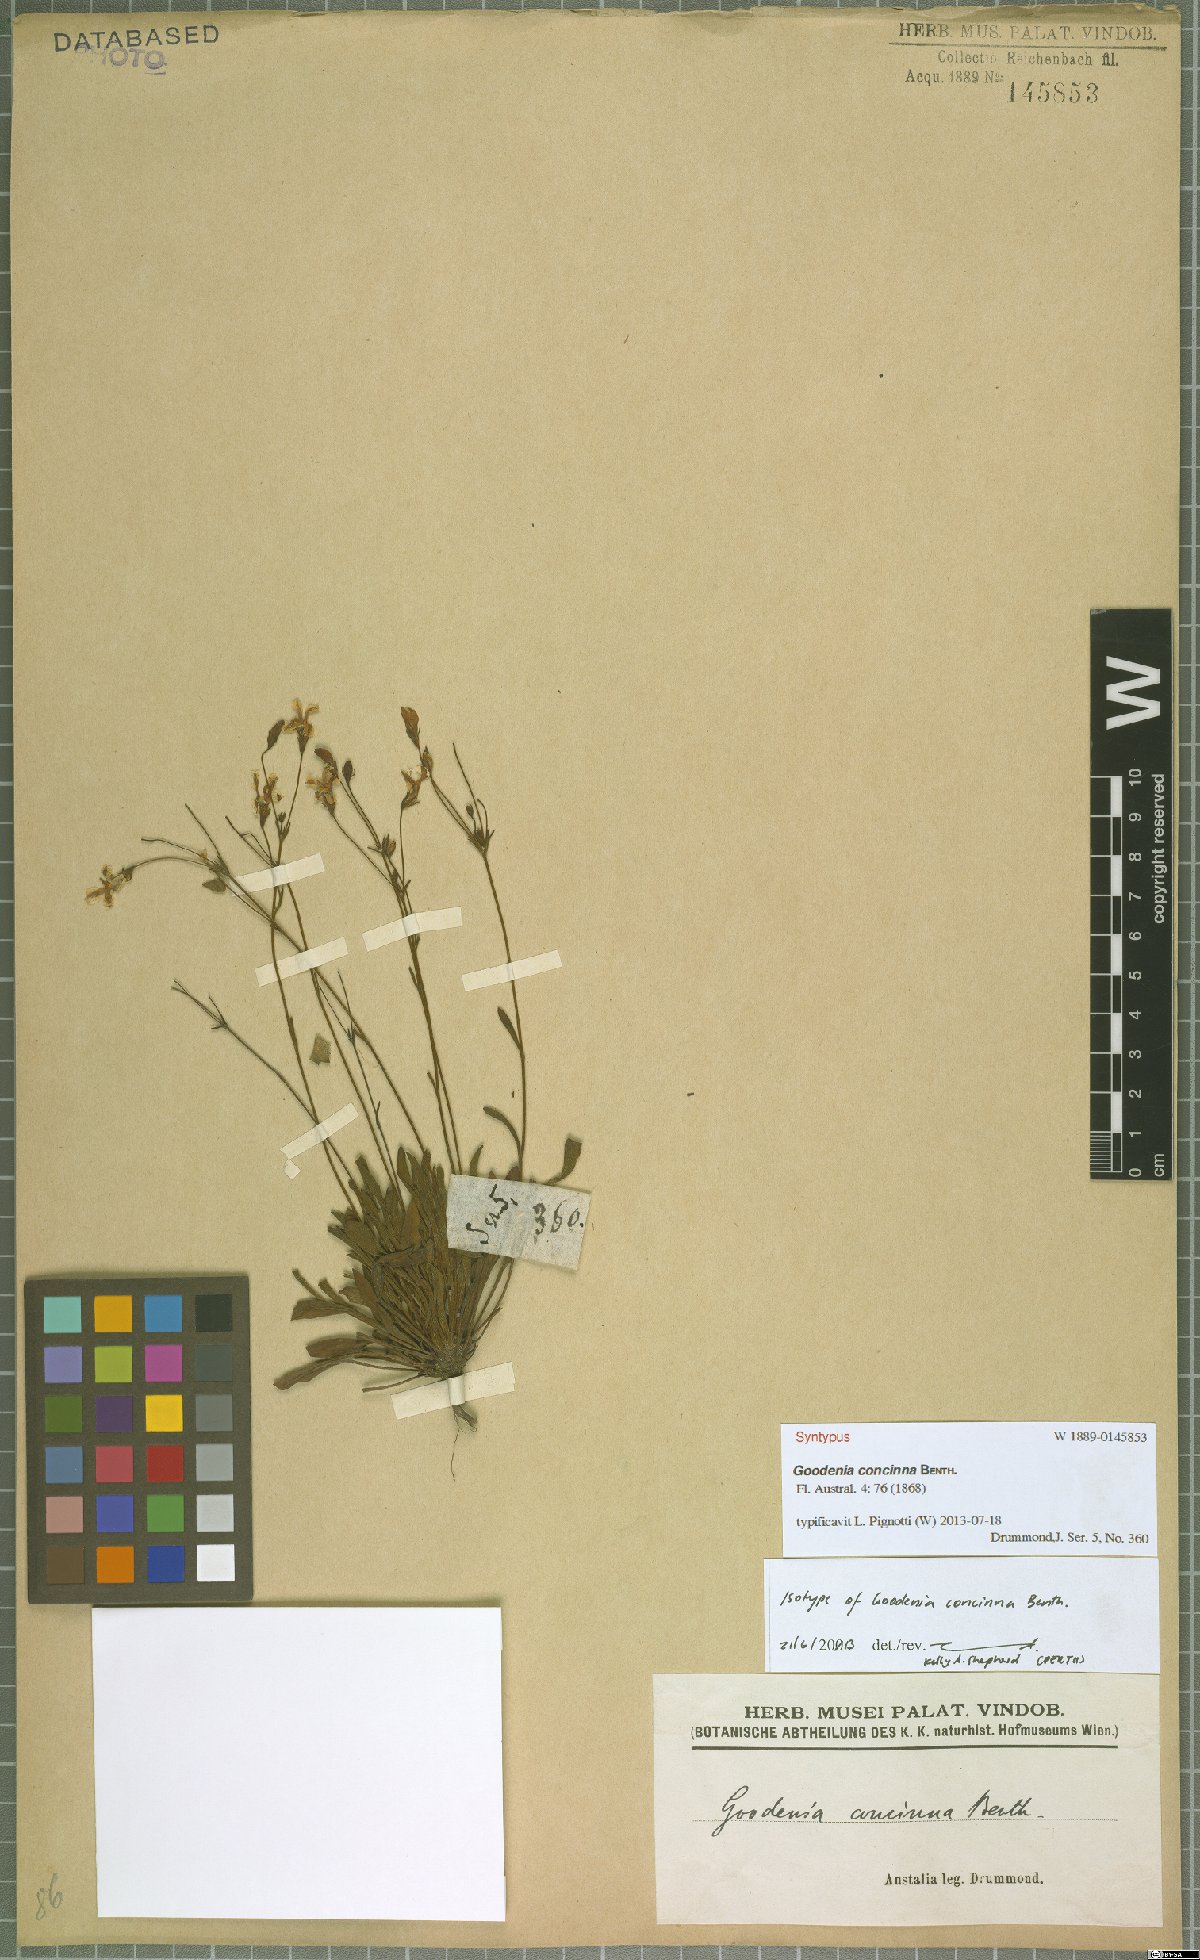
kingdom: Plantae
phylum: Tracheophyta
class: Magnoliopsida
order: Asterales
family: Goodeniaceae
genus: Goodenia
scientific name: Goodenia concinna
